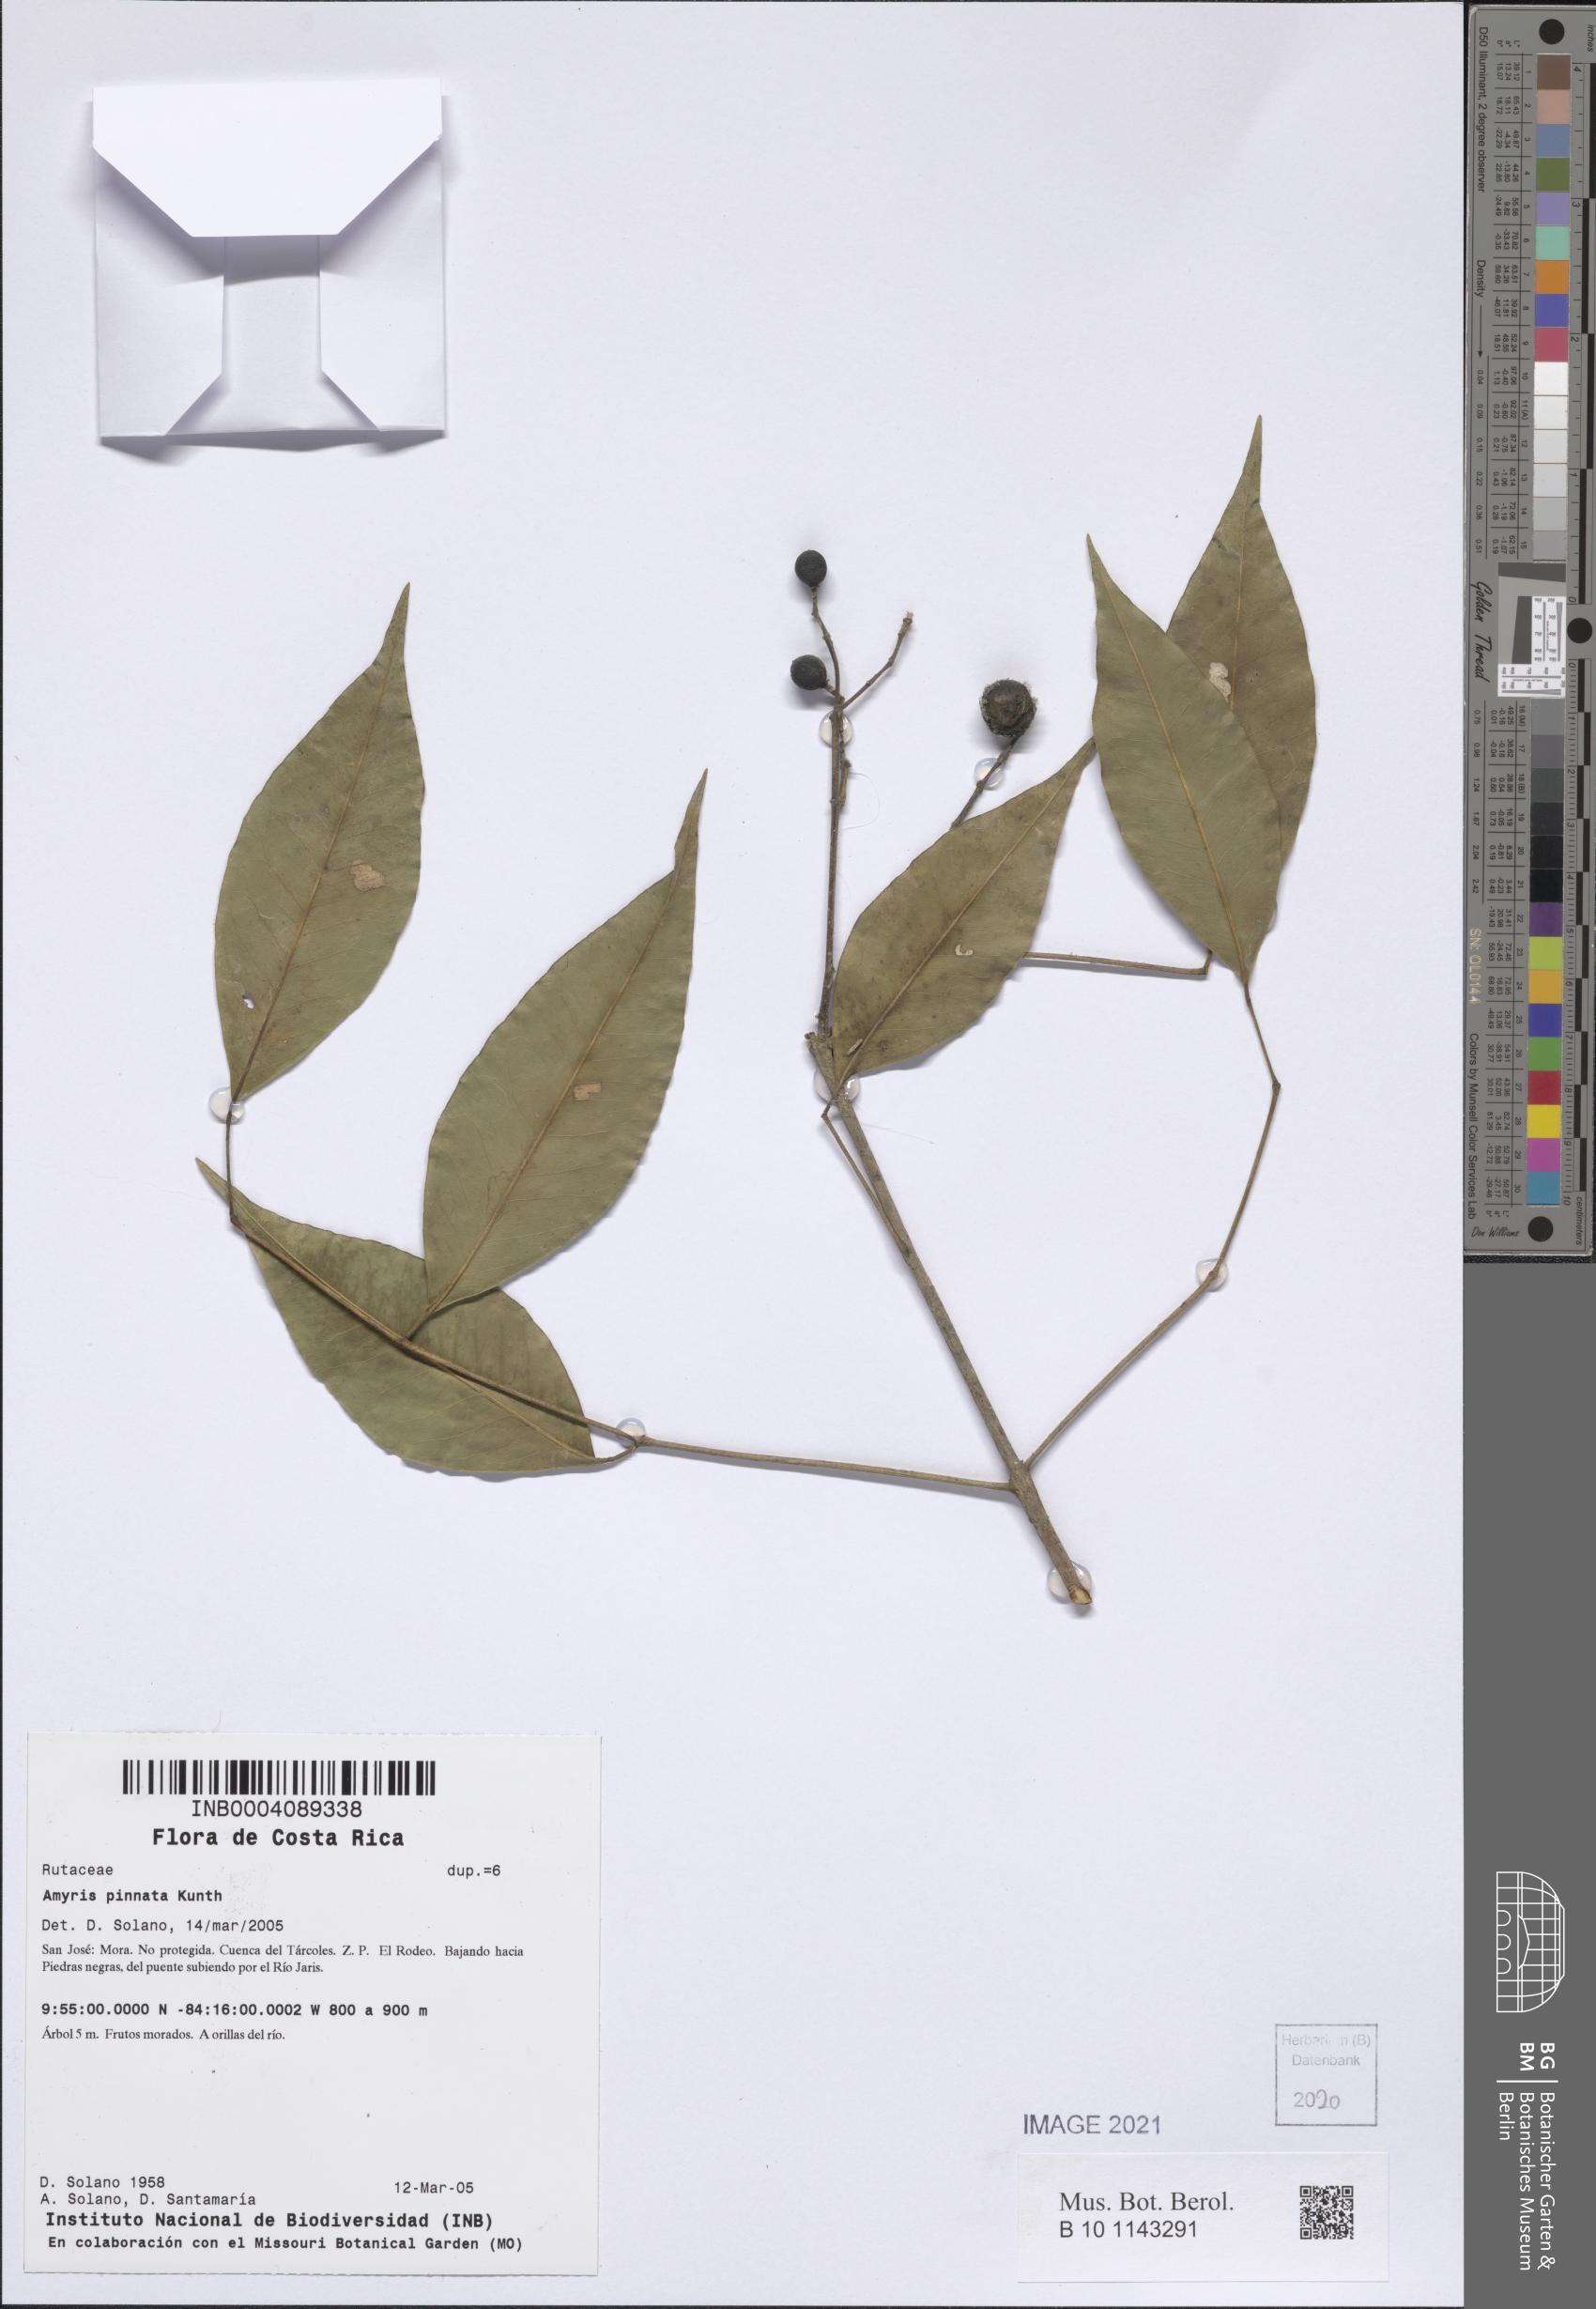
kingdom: Plantae
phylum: Tracheophyta
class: Magnoliopsida
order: Sapindales
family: Rutaceae
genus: Amyris
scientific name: Amyris pinnata
